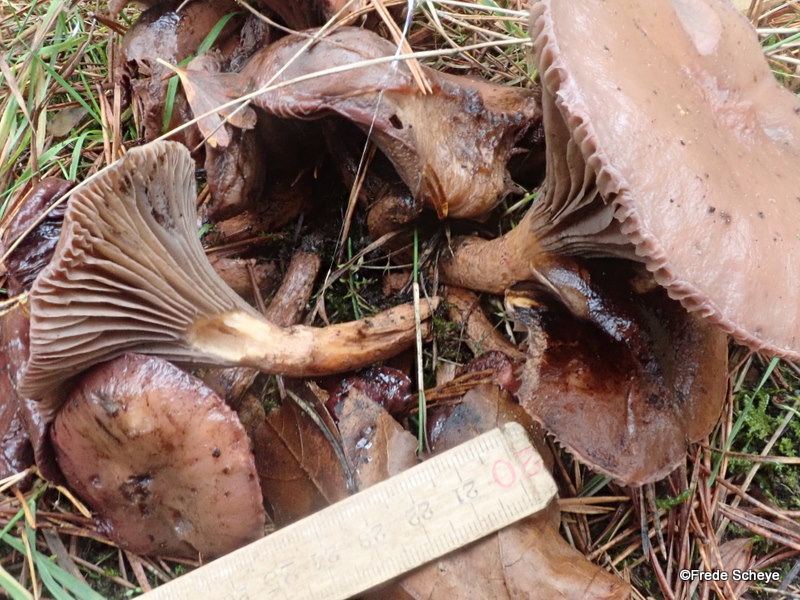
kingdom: Fungi
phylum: Basidiomycota
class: Agaricomycetes
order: Boletales
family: Gomphidiaceae
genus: Chroogomphus
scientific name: Chroogomphus rutilus
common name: brunrød slimslør
